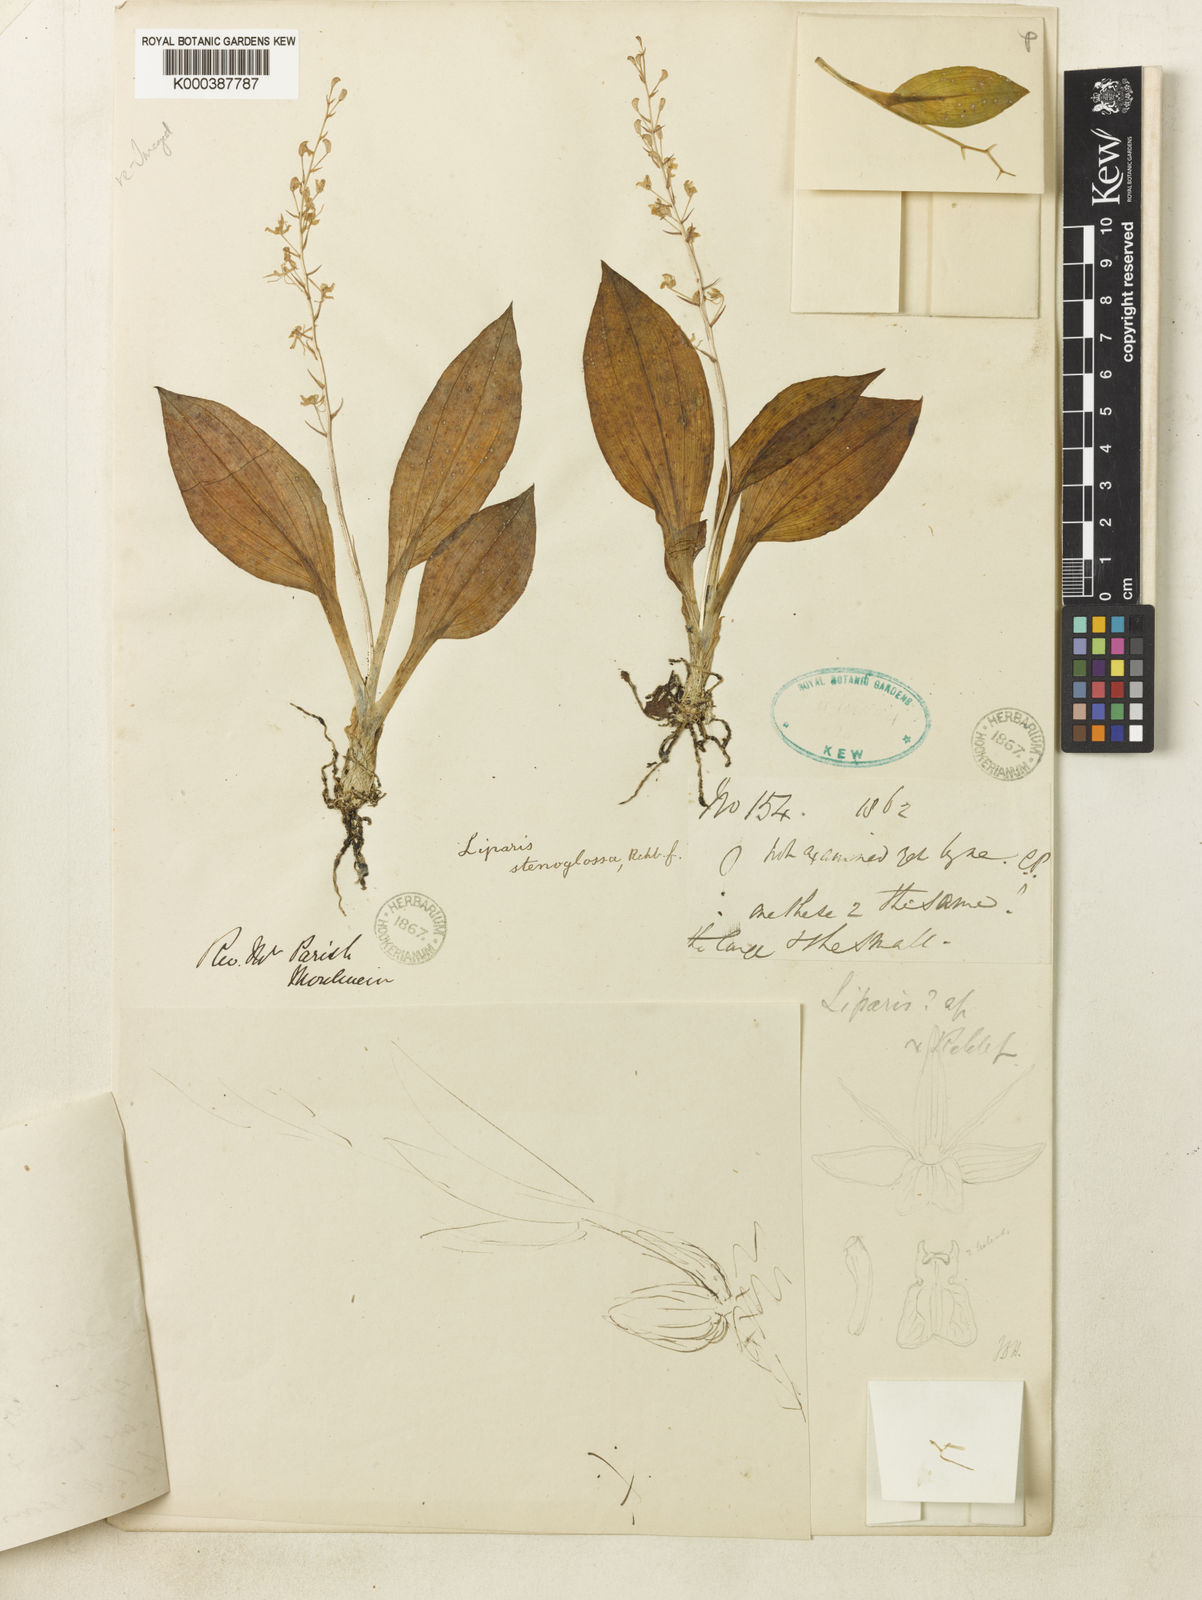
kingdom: Plantae
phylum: Tracheophyta
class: Liliopsida
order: Asparagales
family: Orchidaceae
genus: Liparis
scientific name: Liparis stenoglossa
